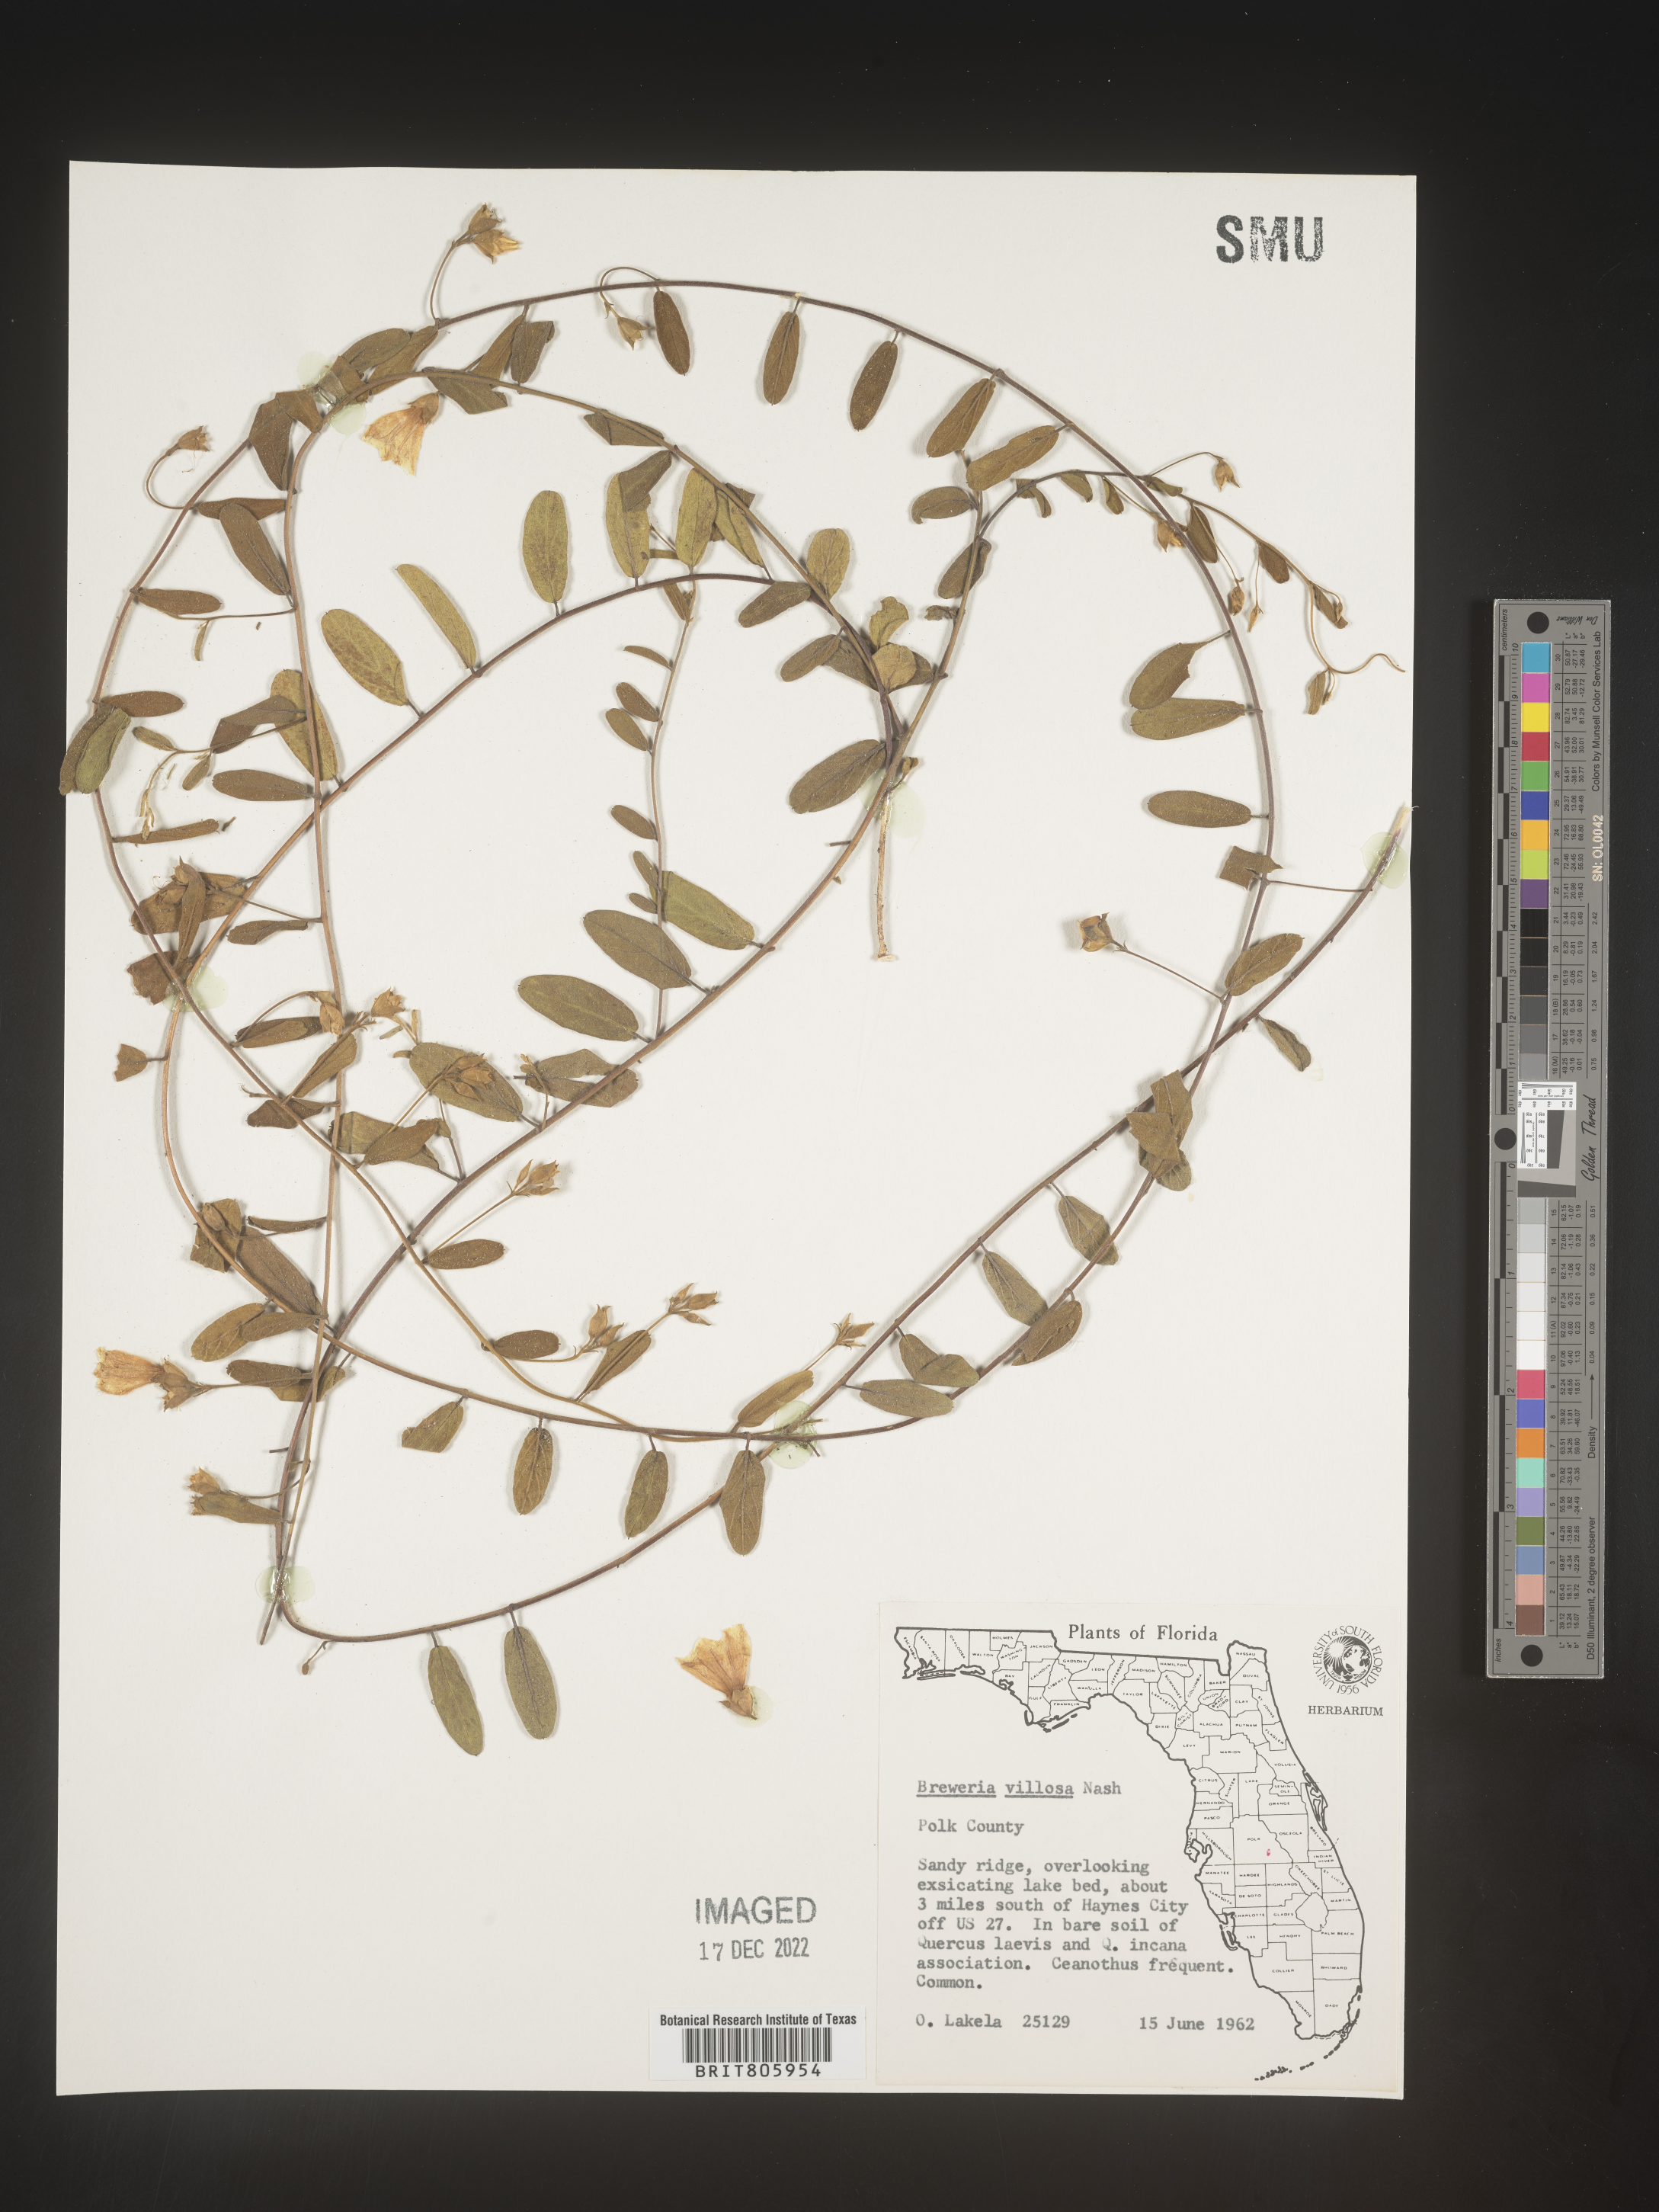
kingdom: Plantae
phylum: Tracheophyta
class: Magnoliopsida
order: Solanales
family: Convolvulaceae
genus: Stylisma
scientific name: Stylisma
